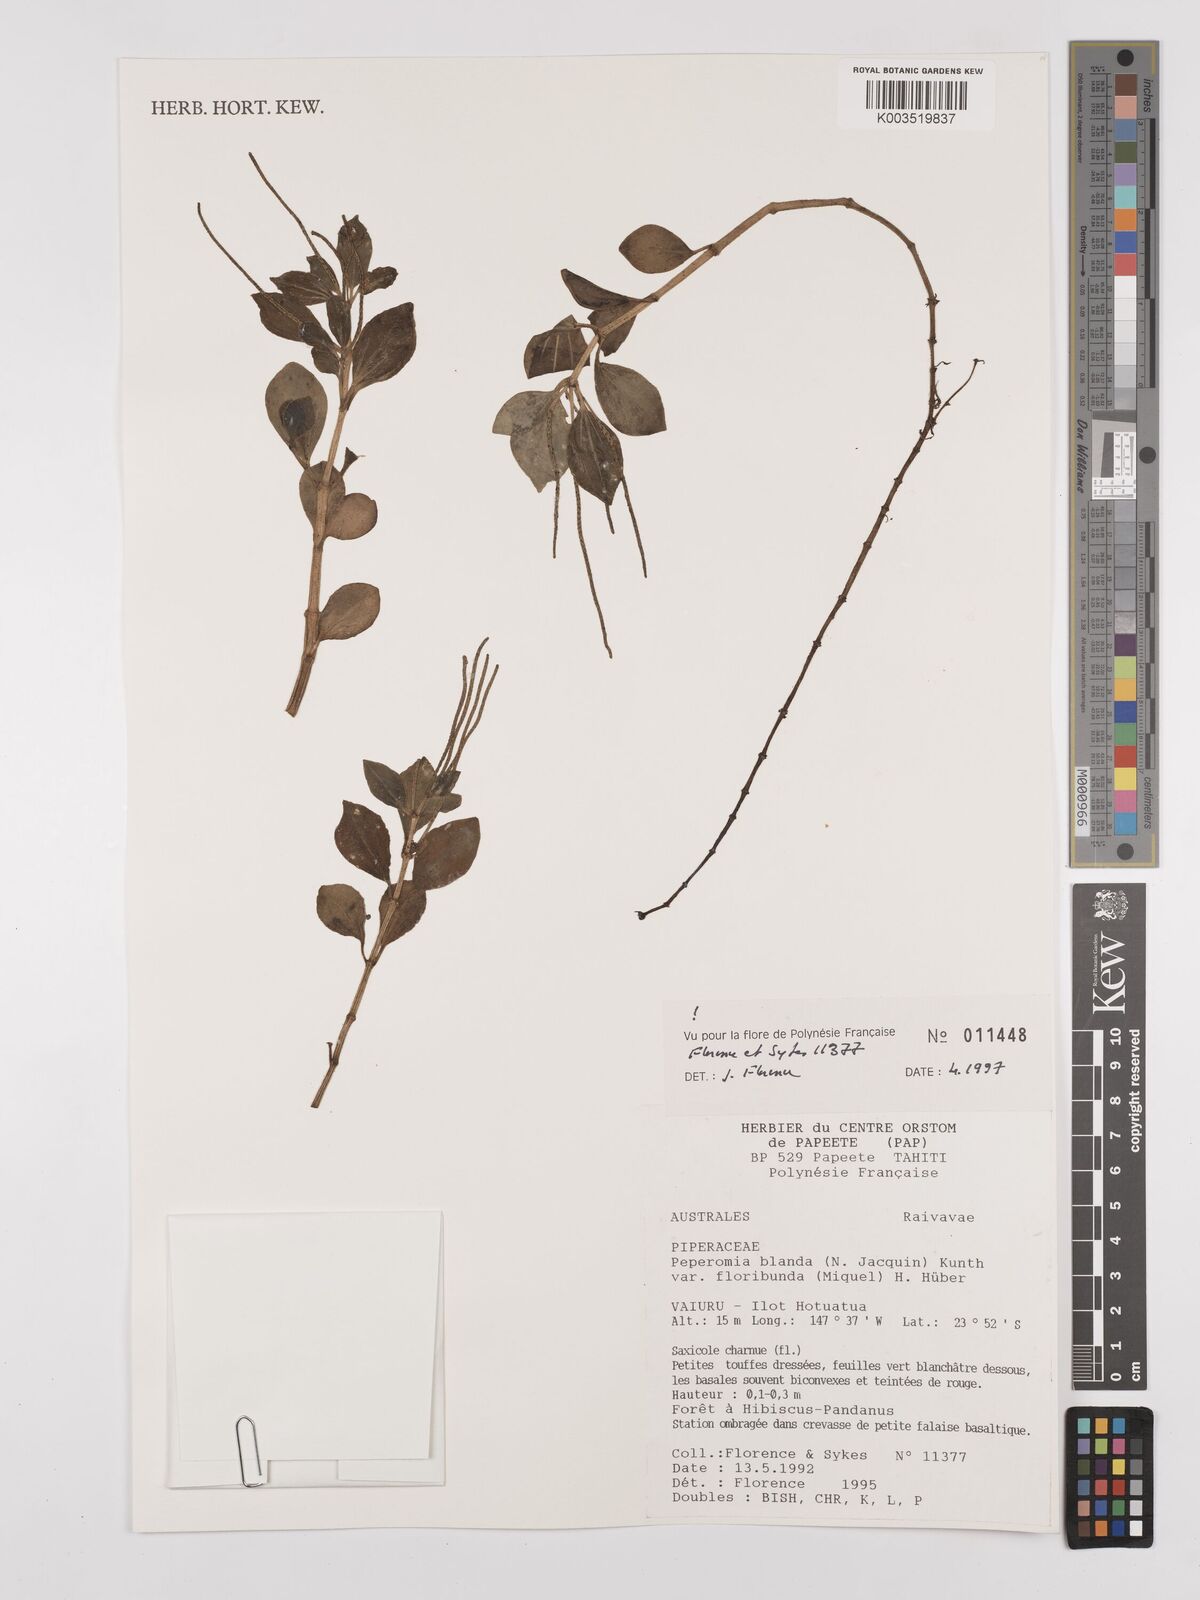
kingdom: Plantae
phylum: Tracheophyta
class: Magnoliopsida
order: Piperales
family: Piperaceae
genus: Peperomia
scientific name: Peperomia leptostachya
